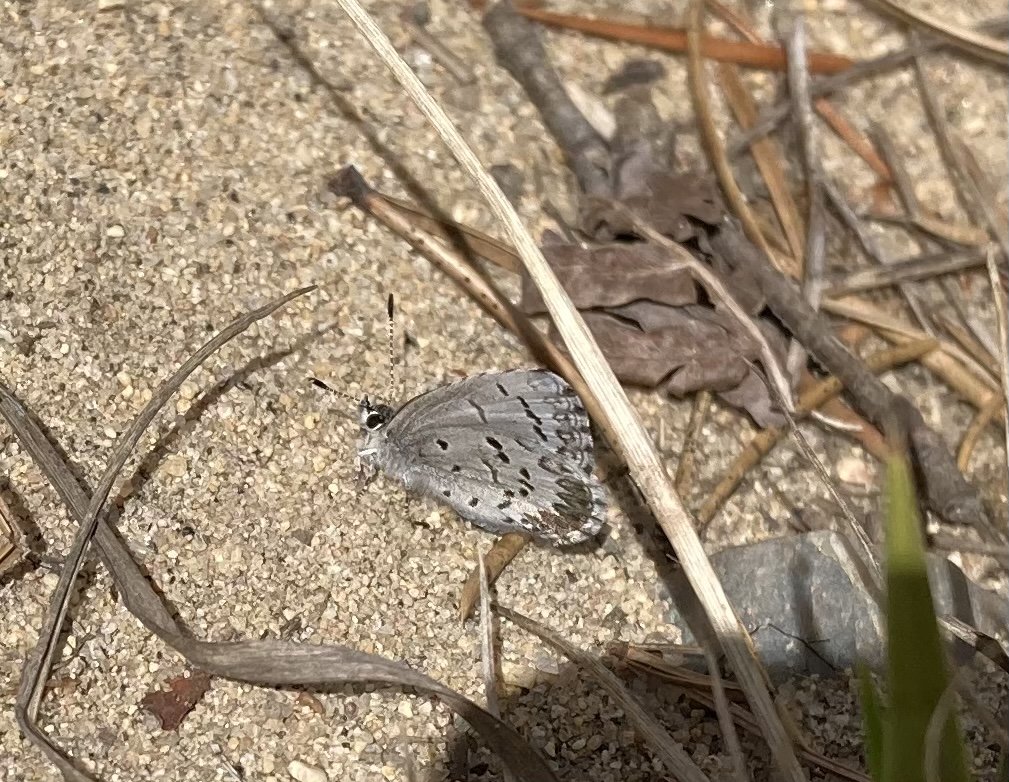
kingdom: Animalia
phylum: Arthropoda
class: Insecta
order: Lepidoptera
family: Lycaenidae
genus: Celastrina
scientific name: Celastrina lucia
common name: Northern Spring Azure
